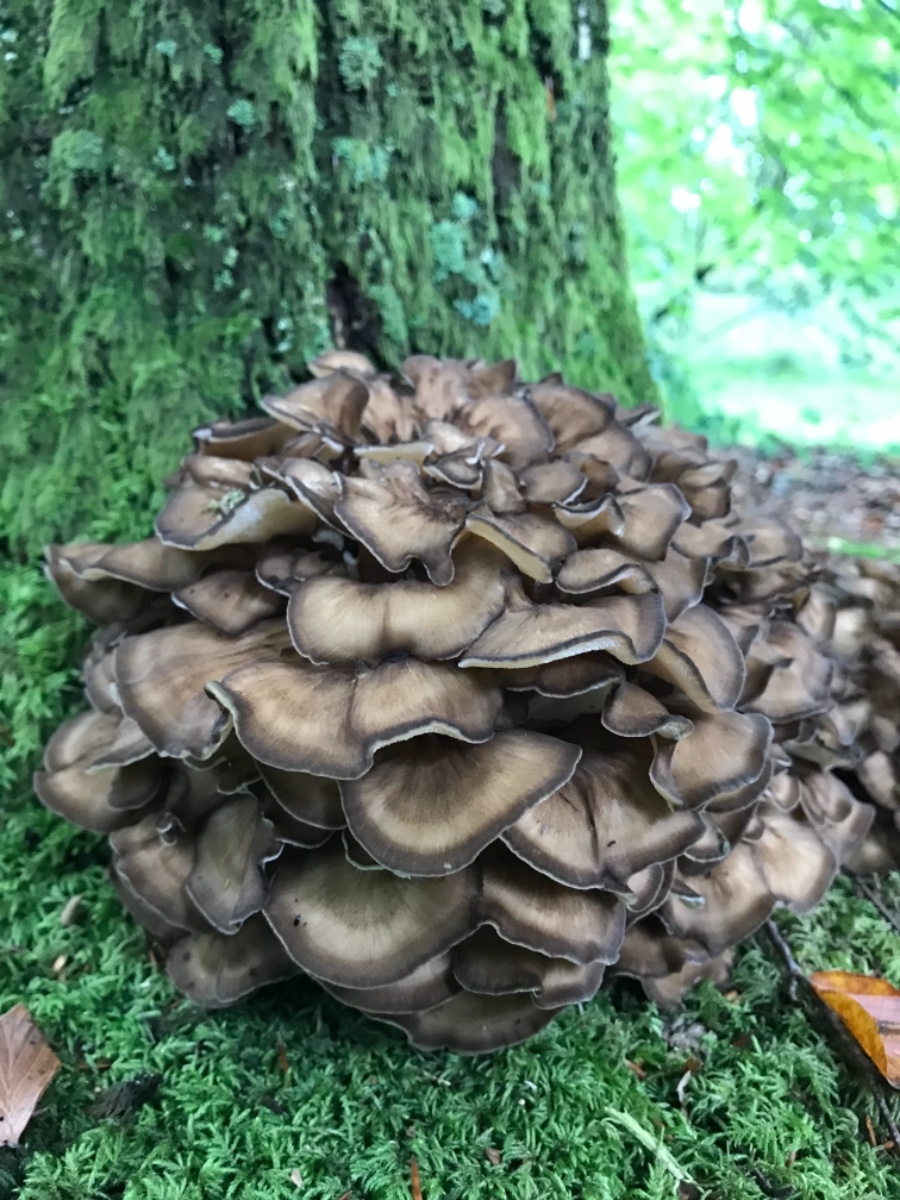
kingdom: Fungi
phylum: Basidiomycota
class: Agaricomycetes
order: Polyporales
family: Grifolaceae
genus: Grifola
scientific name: Grifola frondosa
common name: tueporesvamp
